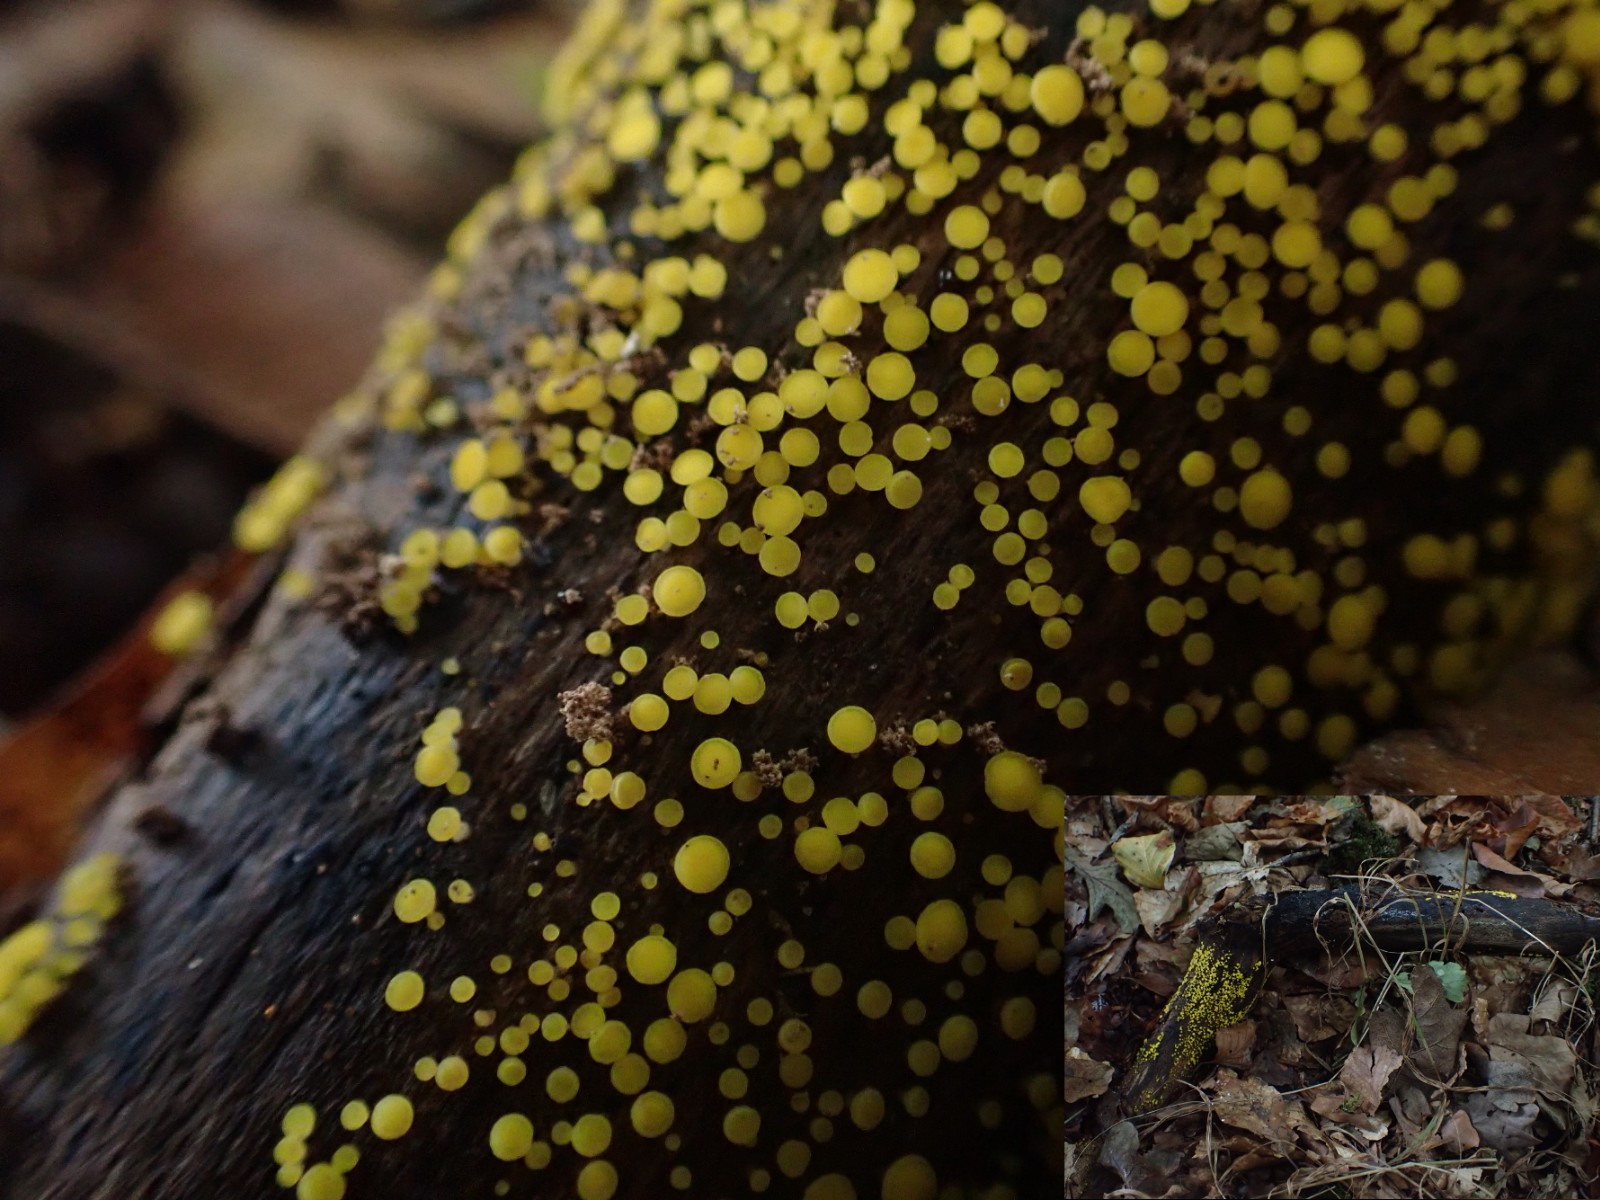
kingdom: Fungi
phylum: Ascomycota
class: Leotiomycetes
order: Helotiales
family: Pezizellaceae
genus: Calycina
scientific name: Calycina citrina
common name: almindelig gulskive
